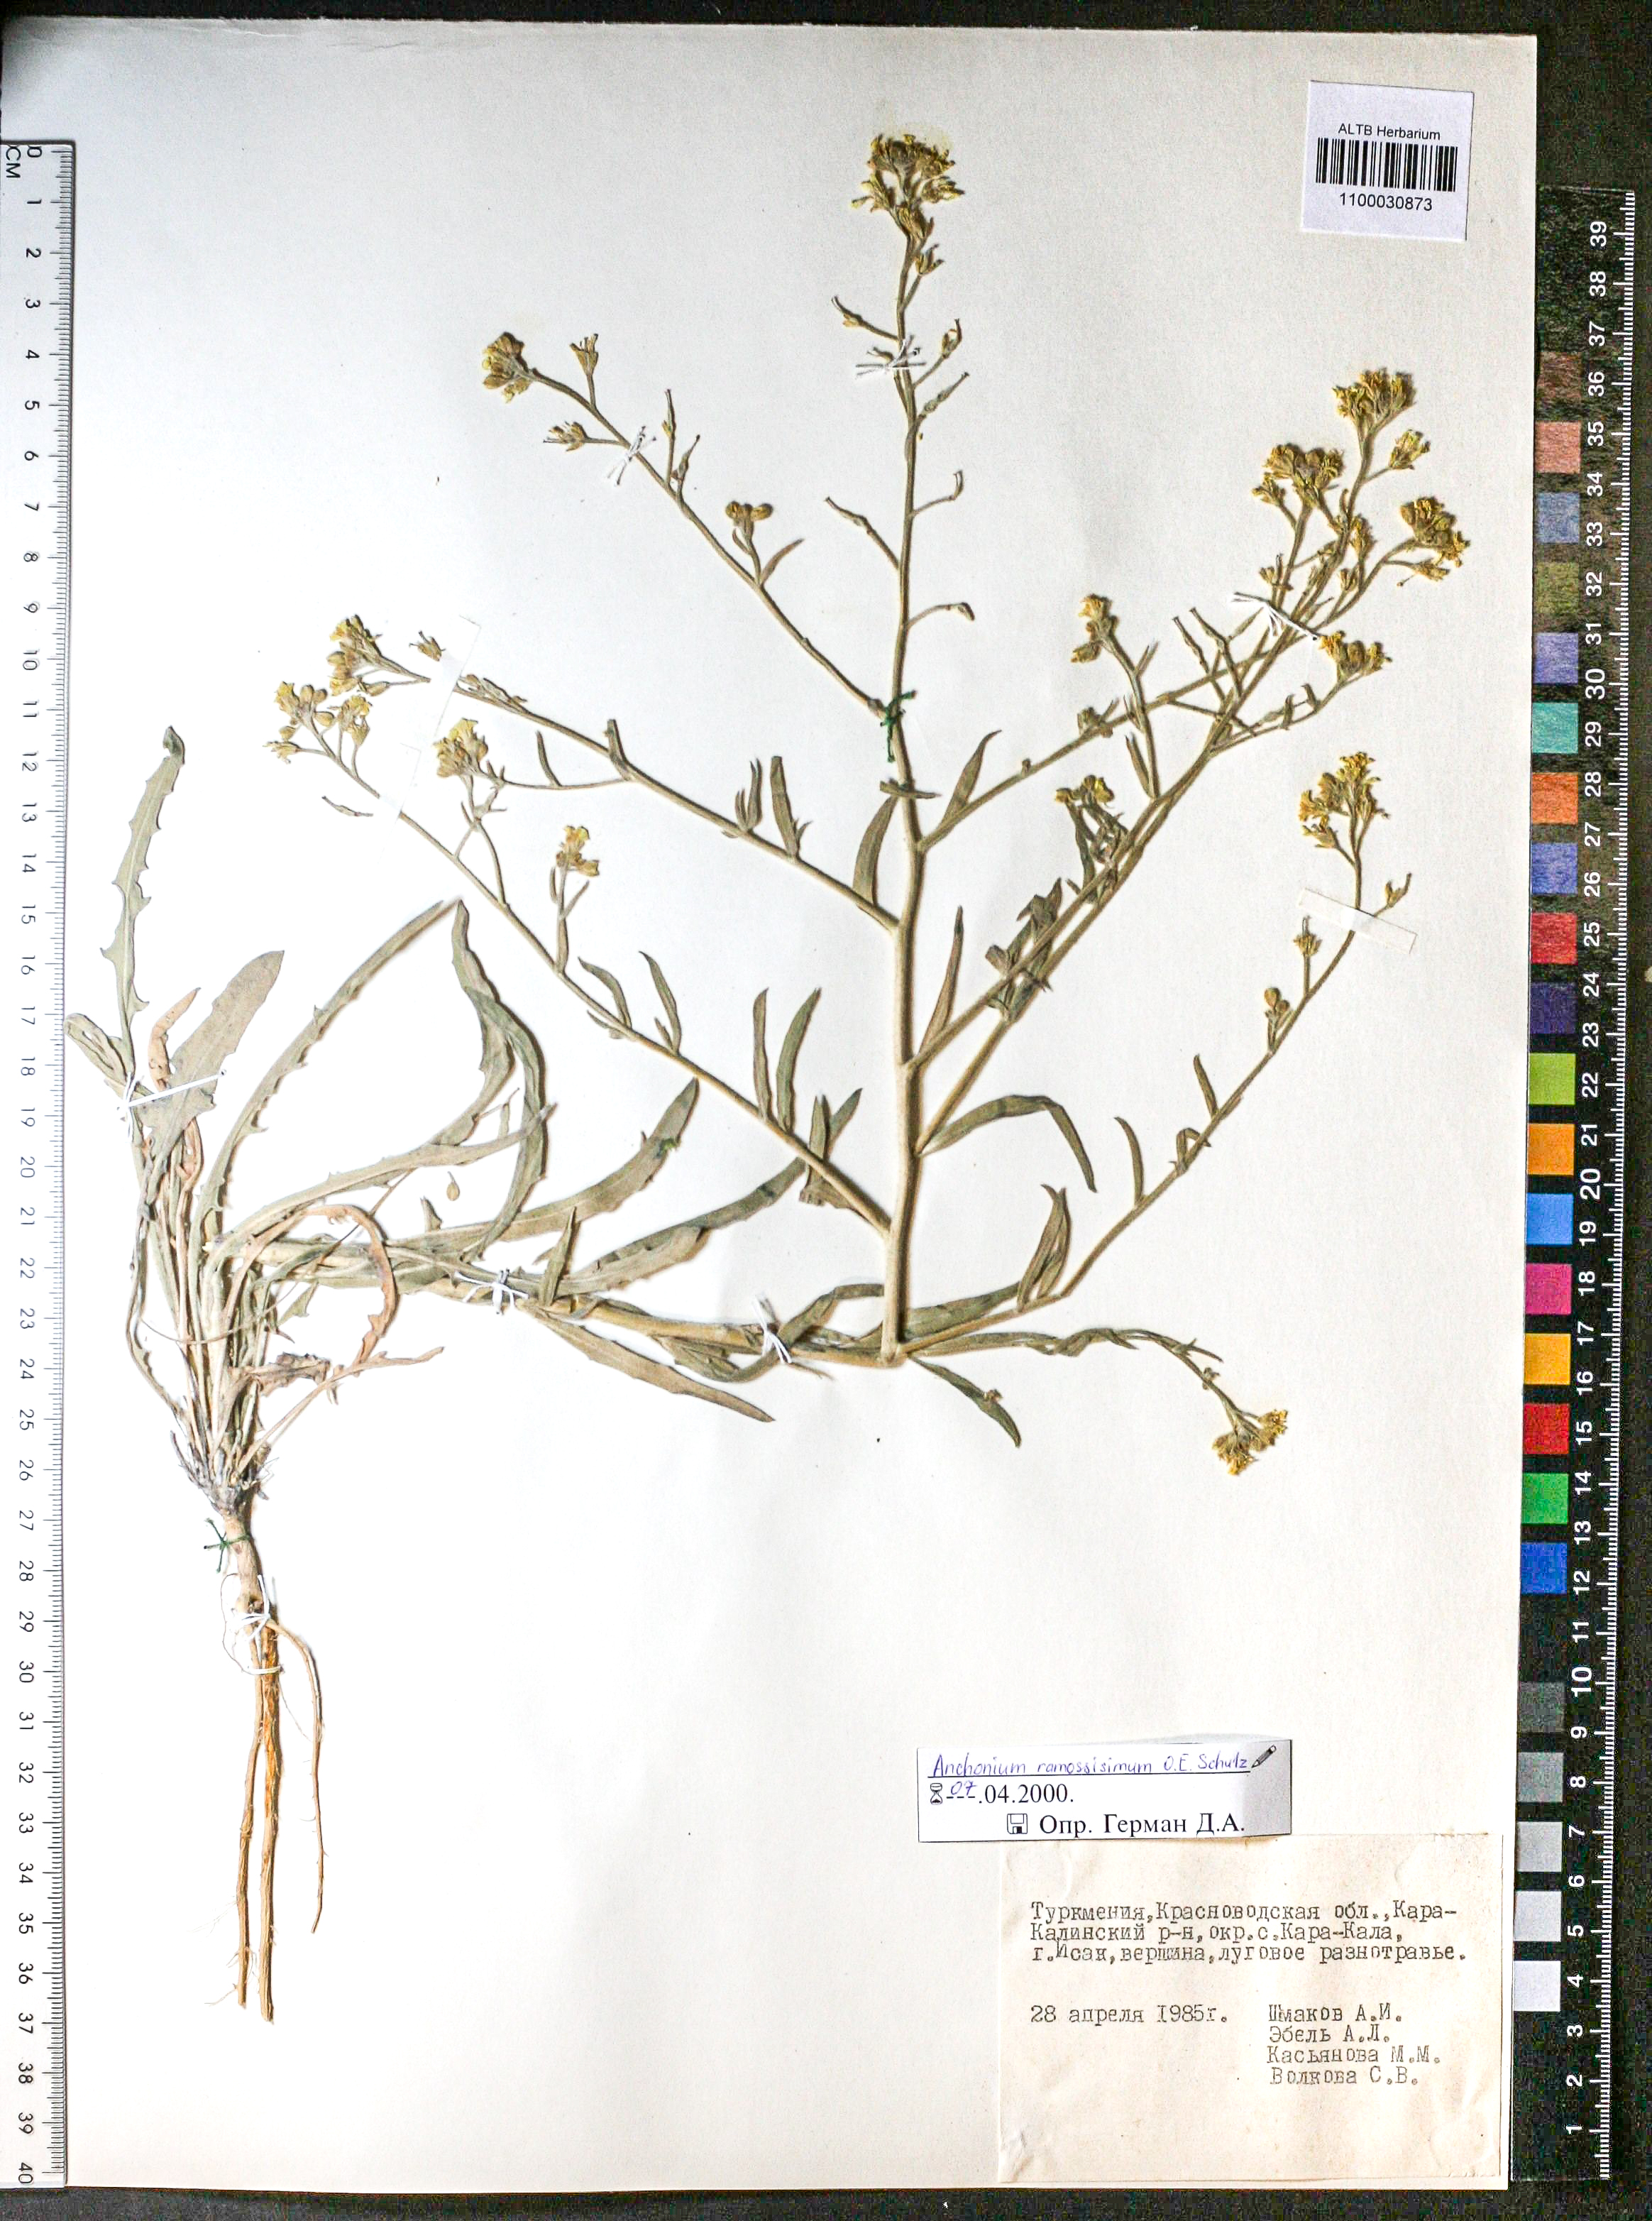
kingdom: Plantae
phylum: Tracheophyta
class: Magnoliopsida
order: Brassicales
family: Brassicaceae
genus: Anchonium
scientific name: Anchonium ramosissimumo
